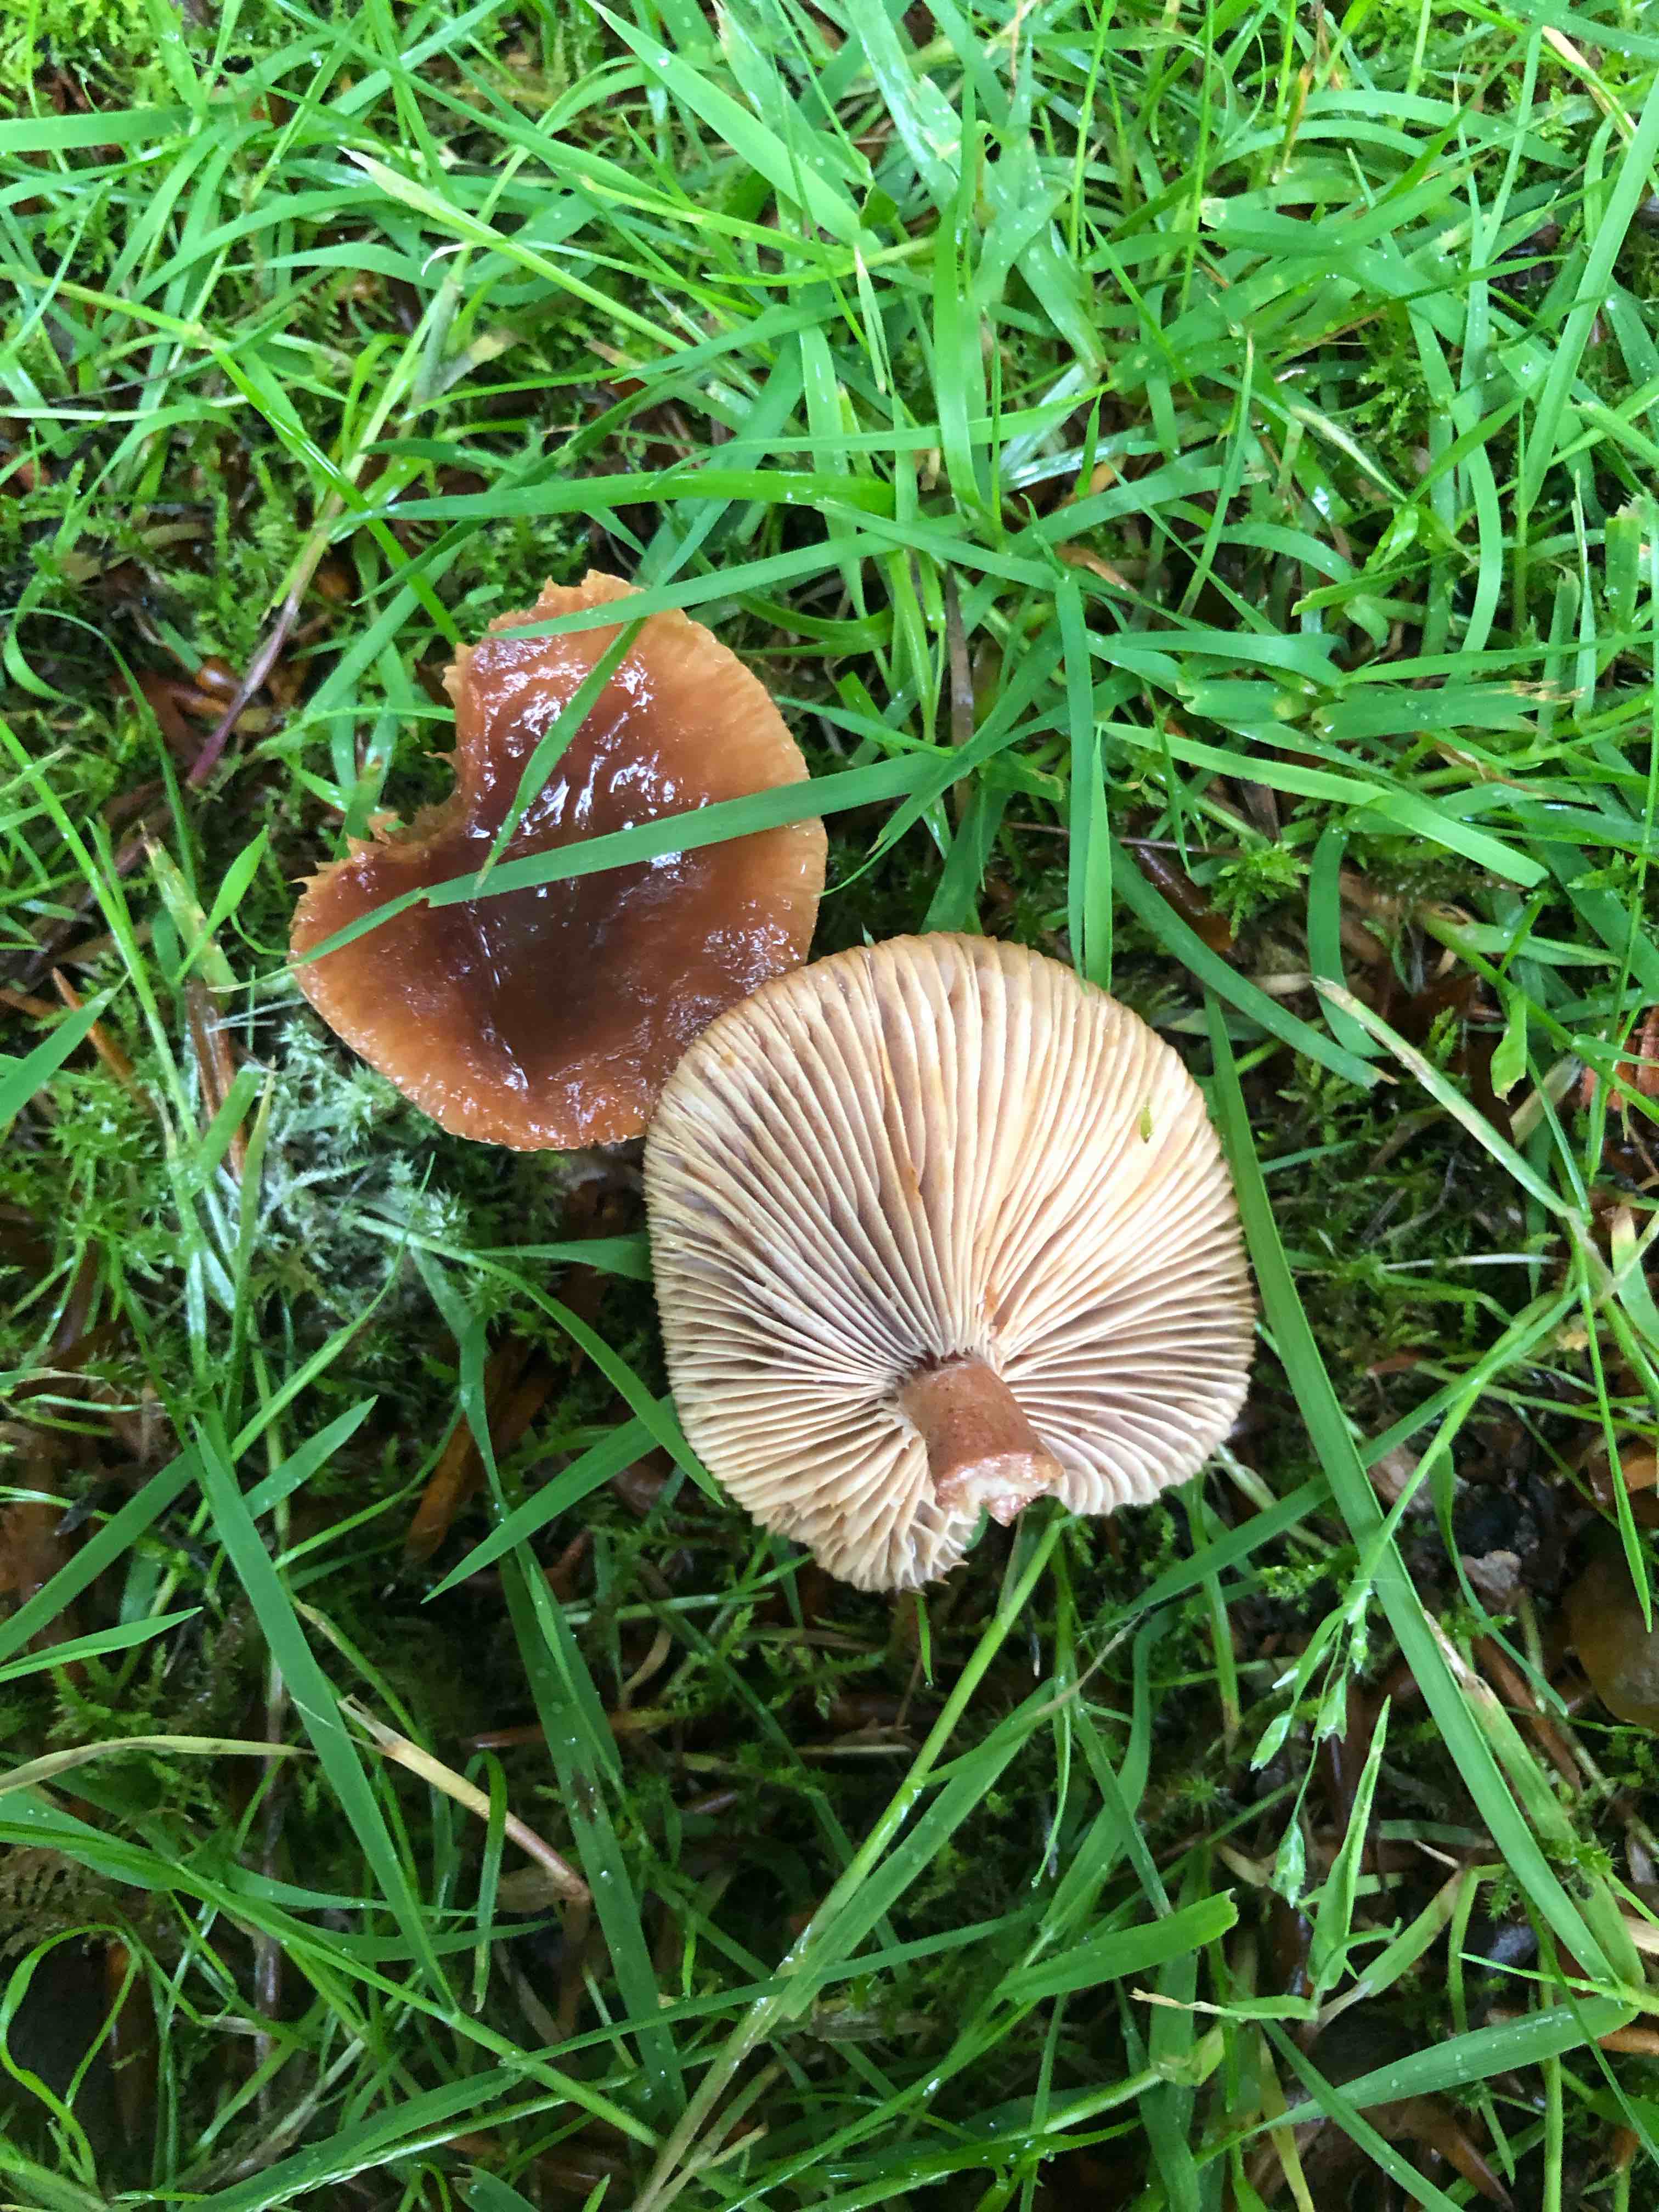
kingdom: Fungi
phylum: Basidiomycota
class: Agaricomycetes
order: Russulales
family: Russulaceae
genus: Lactarius
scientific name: Lactarius subdulcis
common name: sødlig mælkehat
